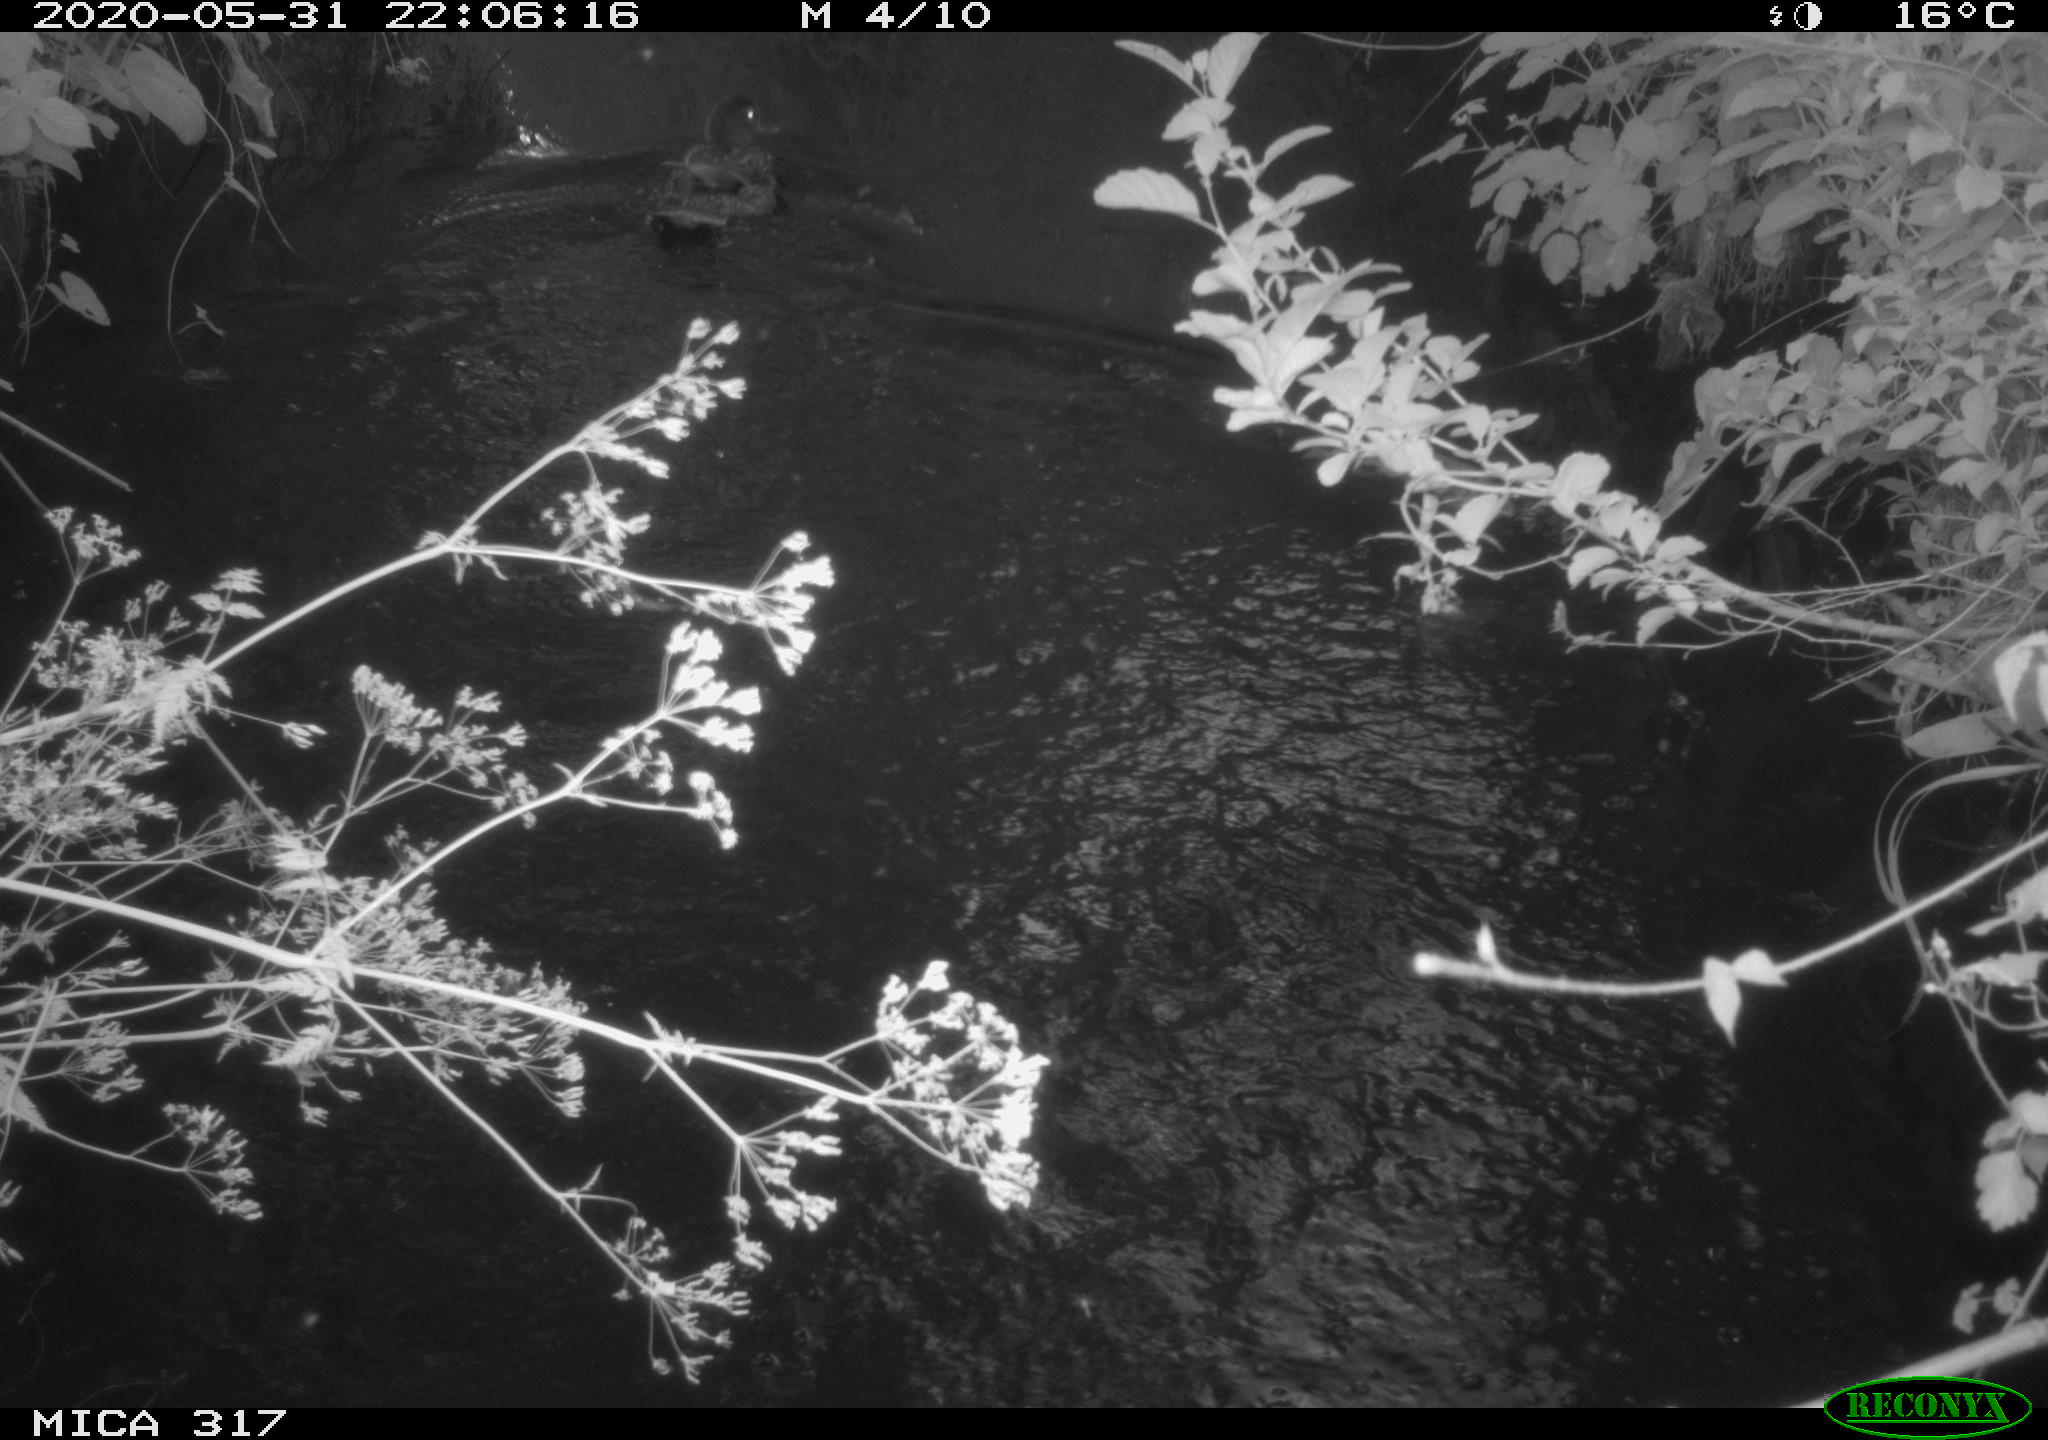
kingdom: Animalia
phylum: Chordata
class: Aves
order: Anseriformes
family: Anatidae
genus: Anas
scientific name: Anas platyrhynchos
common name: Mallard
